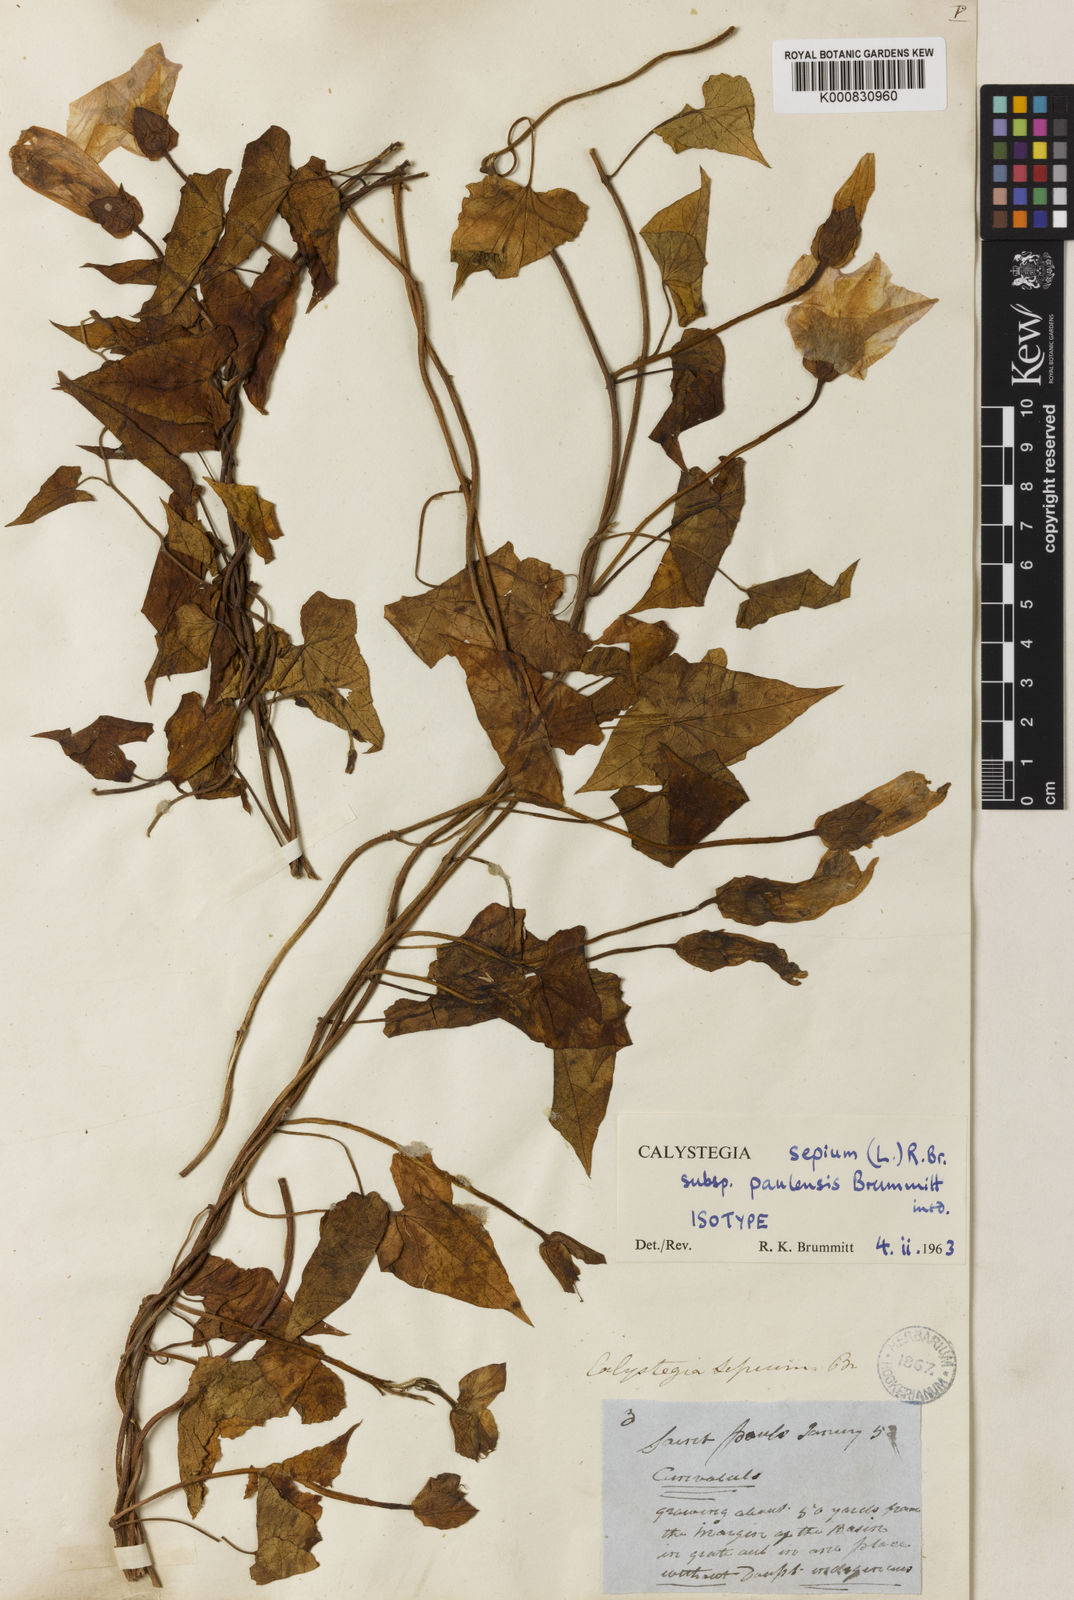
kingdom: Plantae
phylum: Tracheophyta
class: Magnoliopsida
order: Solanales
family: Convolvulaceae
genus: Calystegia
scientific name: Calystegia sepium
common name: Hedge bindweed
